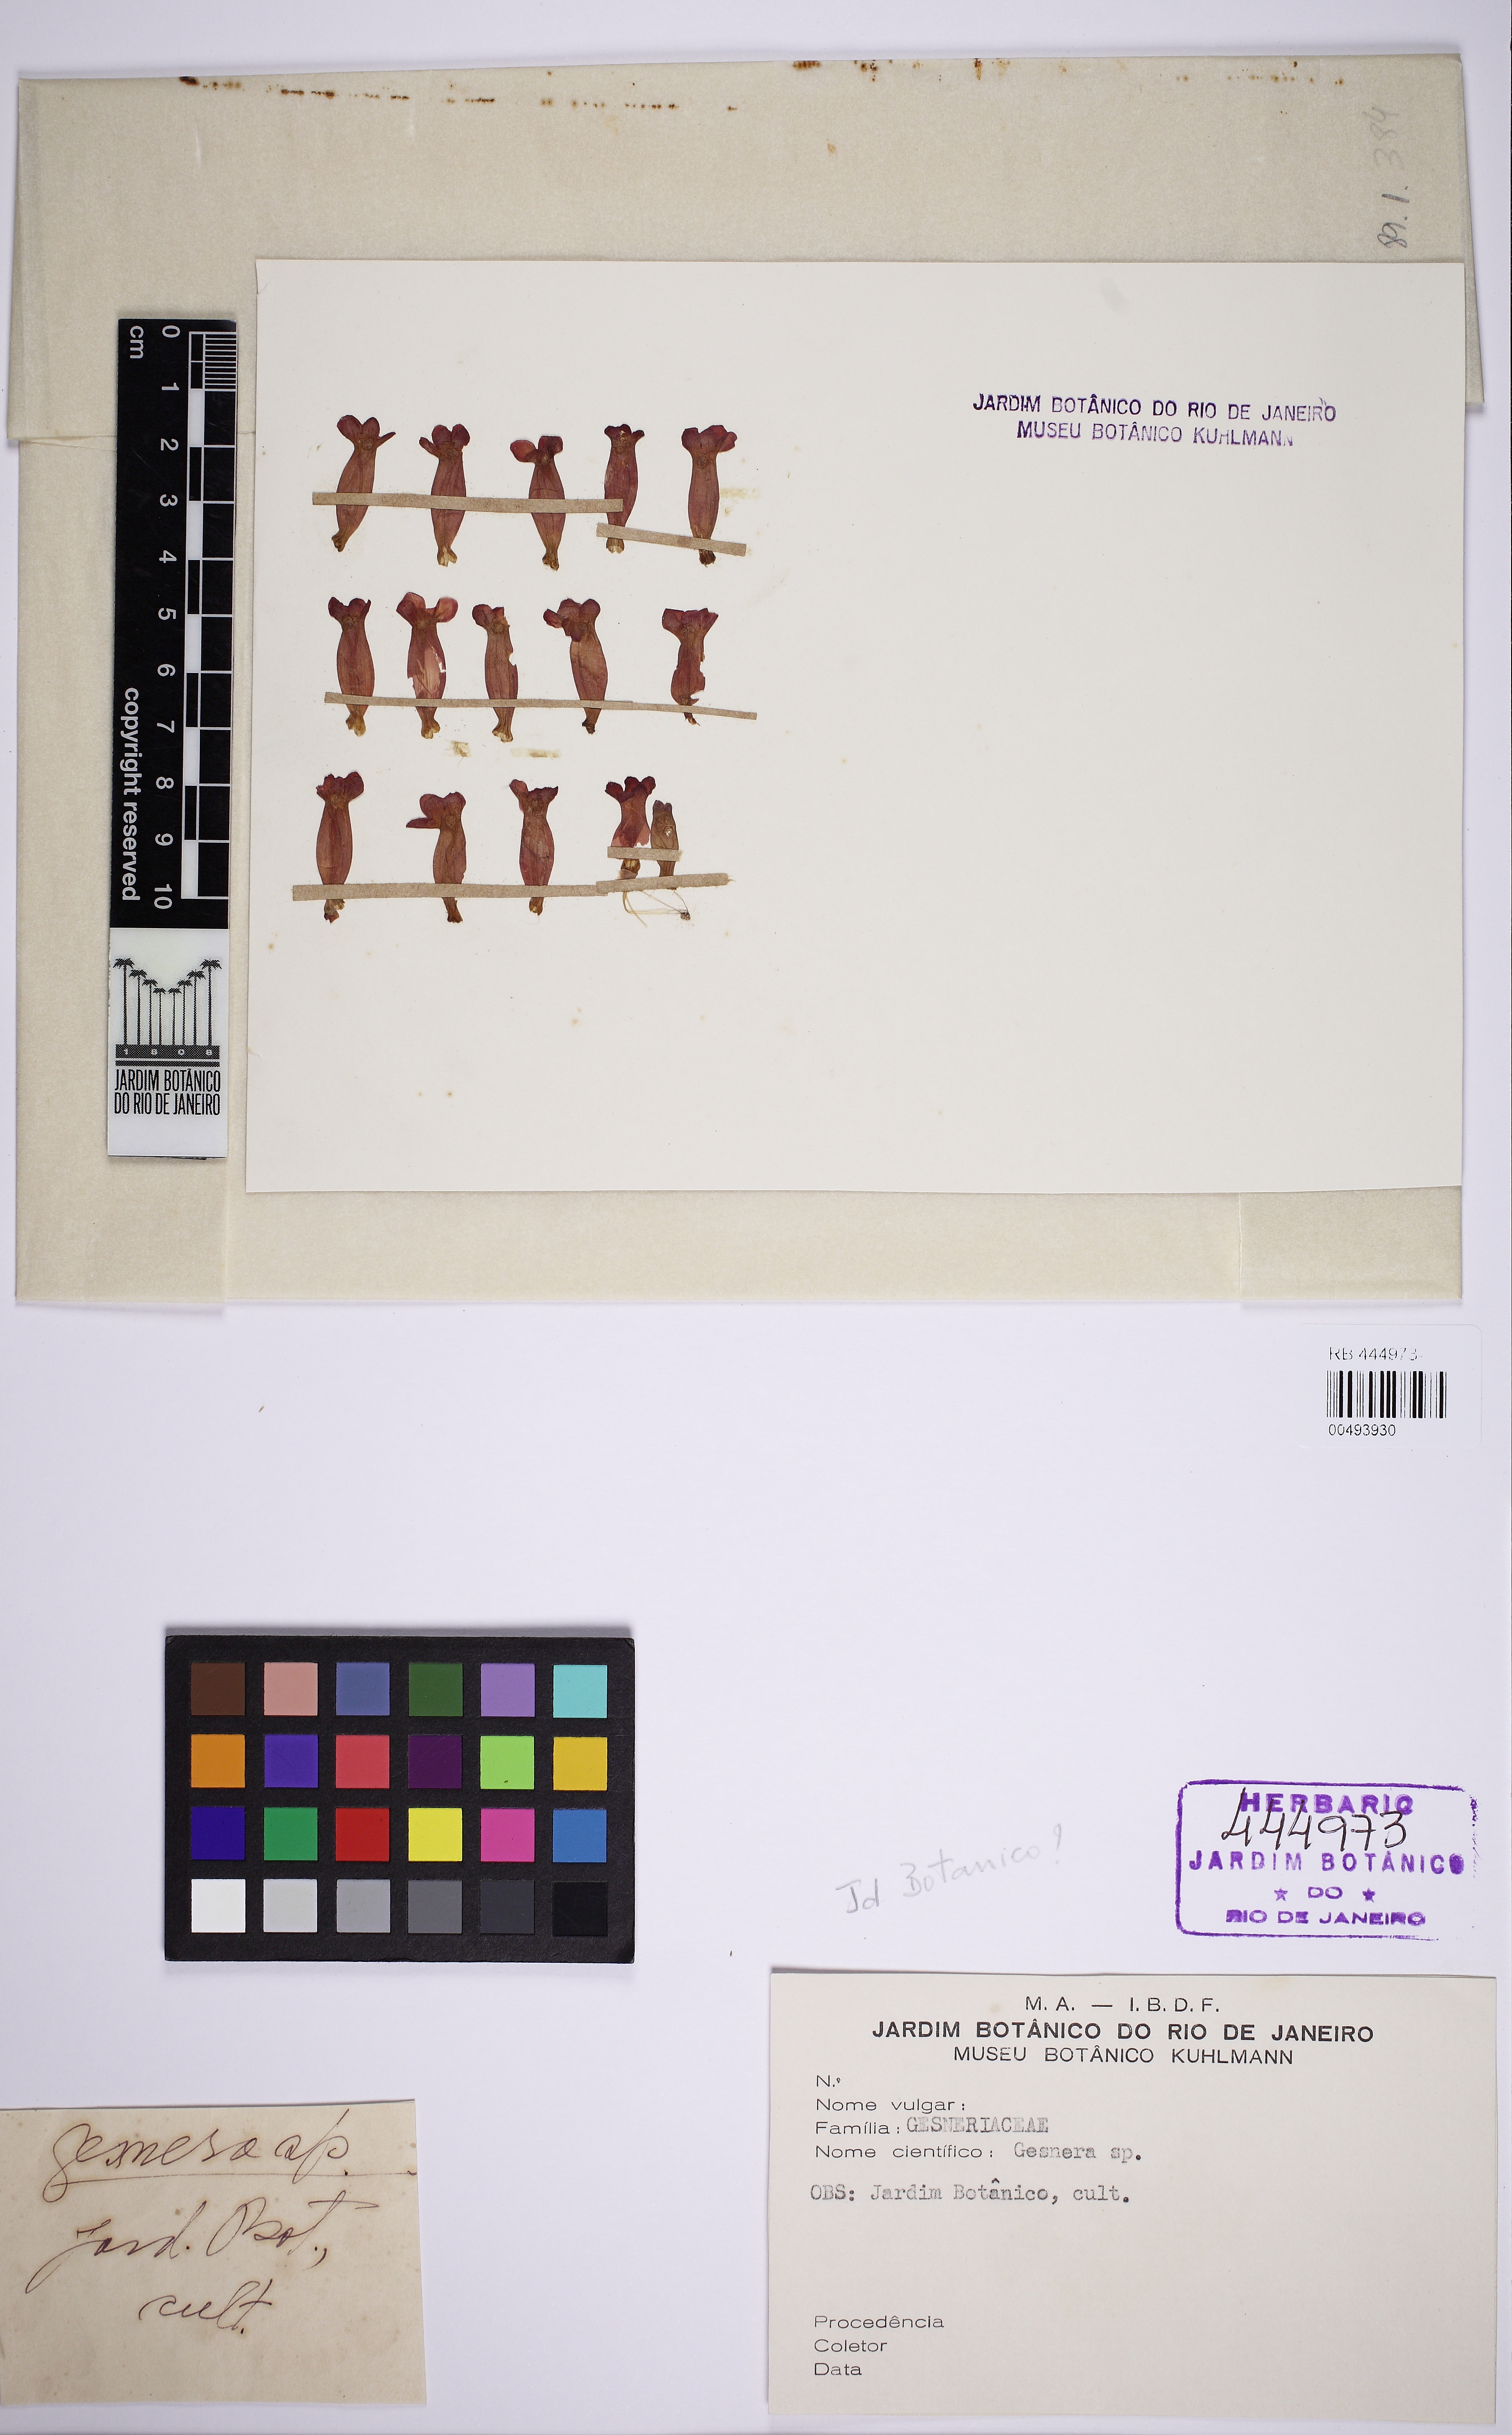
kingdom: Plantae
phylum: Tracheophyta
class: Magnoliopsida
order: Lamiales
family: Gesneriaceae
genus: Sinningia
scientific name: Sinningia
